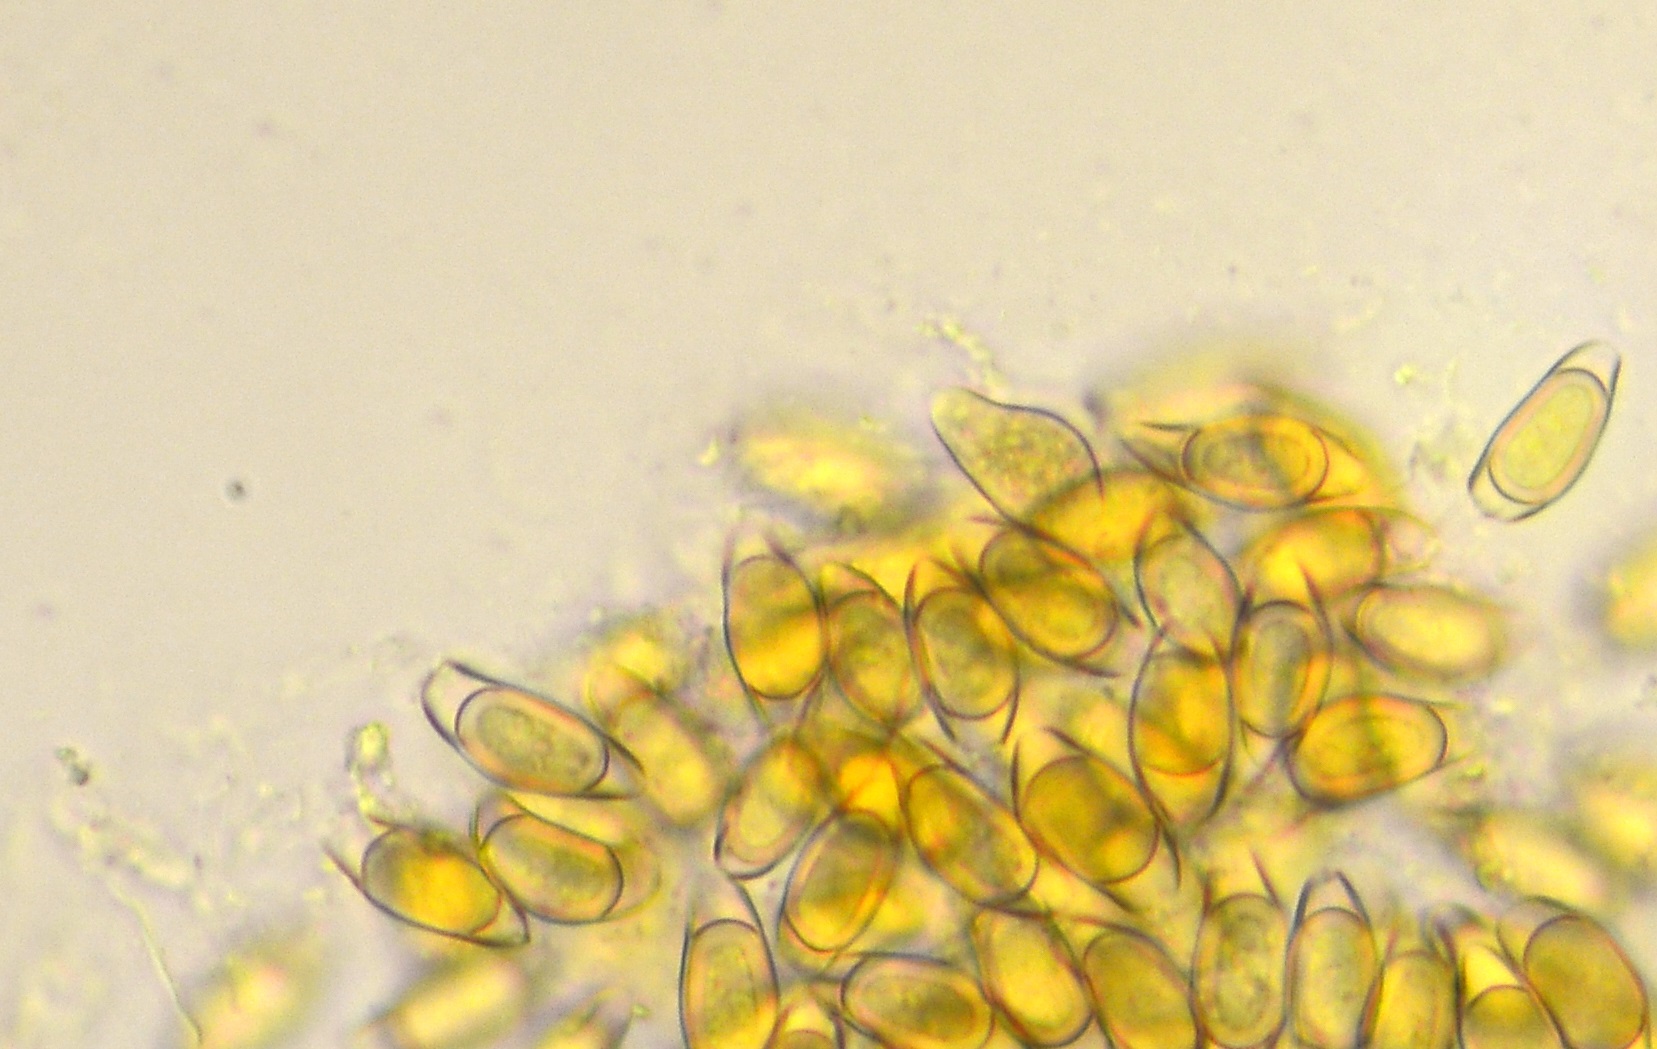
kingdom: Fungi
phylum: Basidiomycota
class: Agaricomycetes
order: Agaricales
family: Lyophyllaceae
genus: Asterophora
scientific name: Asterophora parasitica
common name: grå snyltehat
